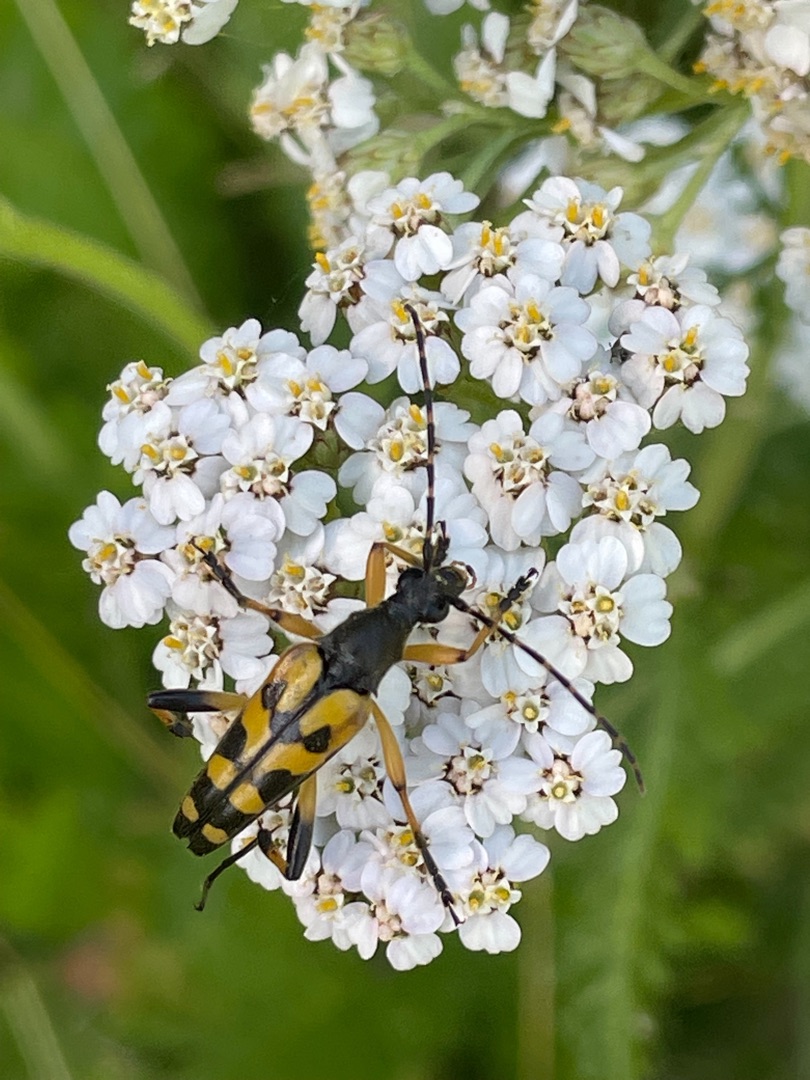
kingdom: Animalia
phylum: Arthropoda
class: Insecta
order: Coleoptera
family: Cerambycidae
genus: Rutpela
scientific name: Rutpela maculata
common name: Sydlig blomsterbuk
